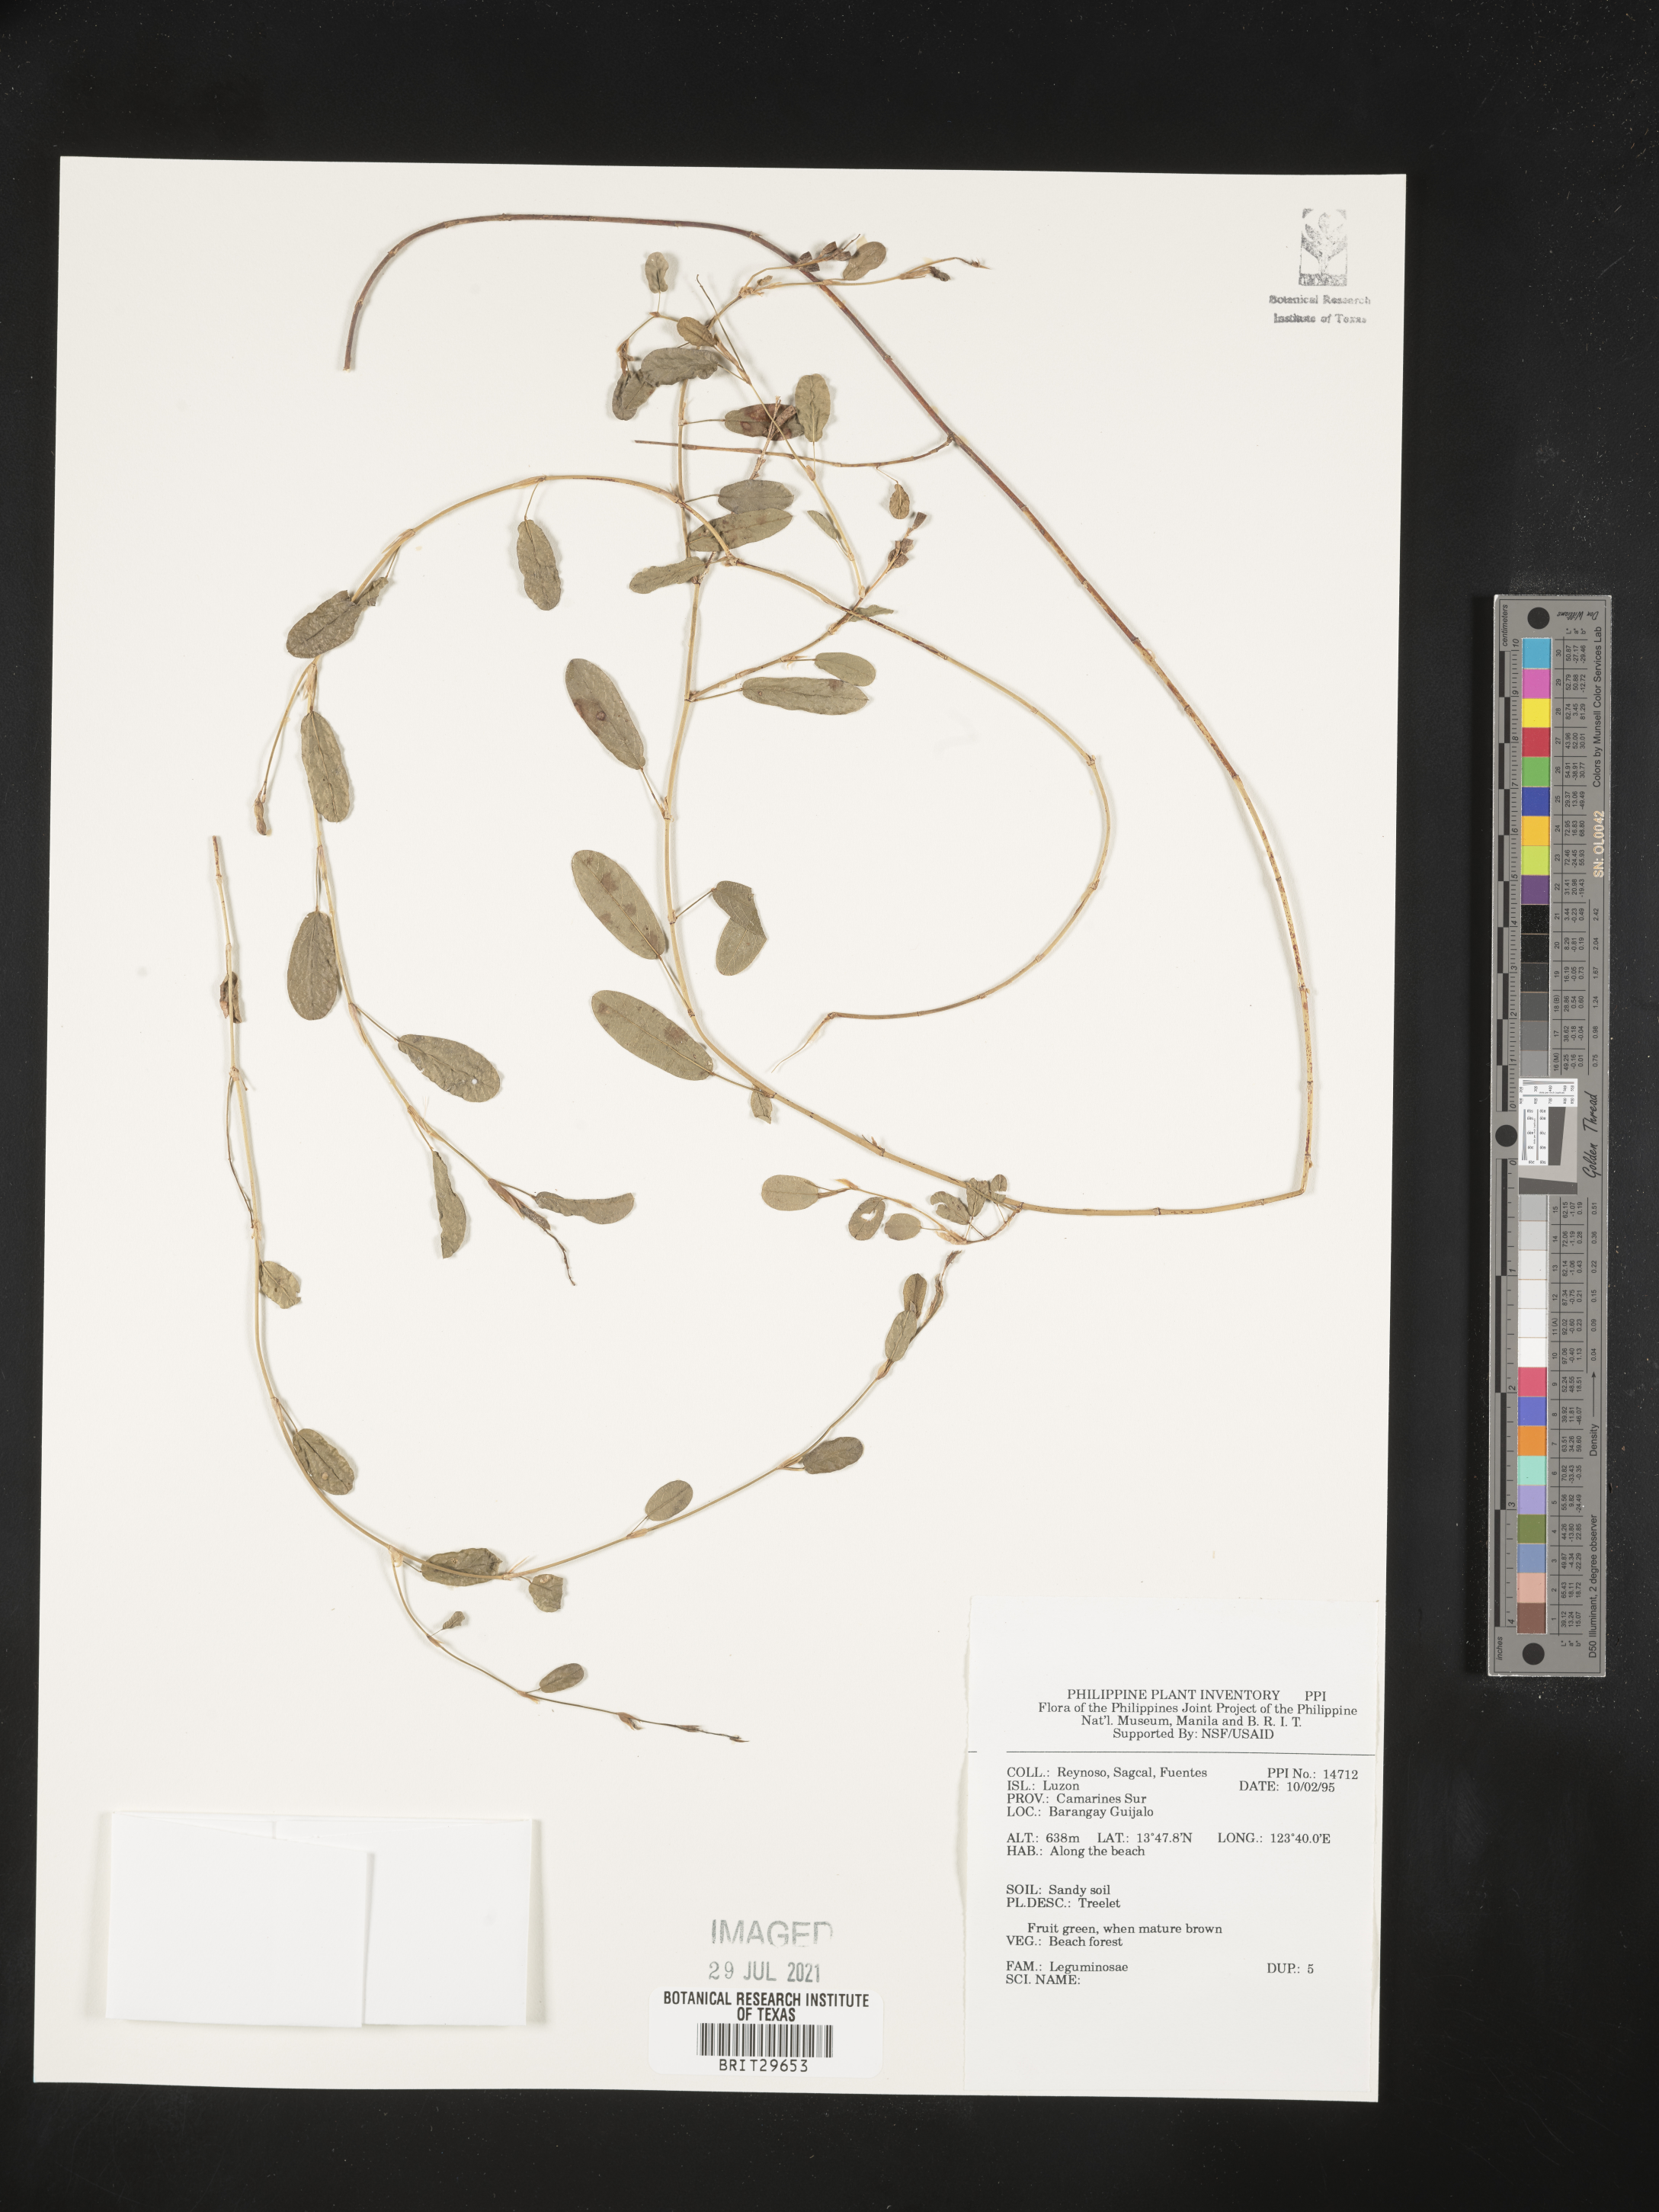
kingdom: Plantae
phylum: Tracheophyta
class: Magnoliopsida
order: Fabales
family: Fabaceae
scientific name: Fabaceae
